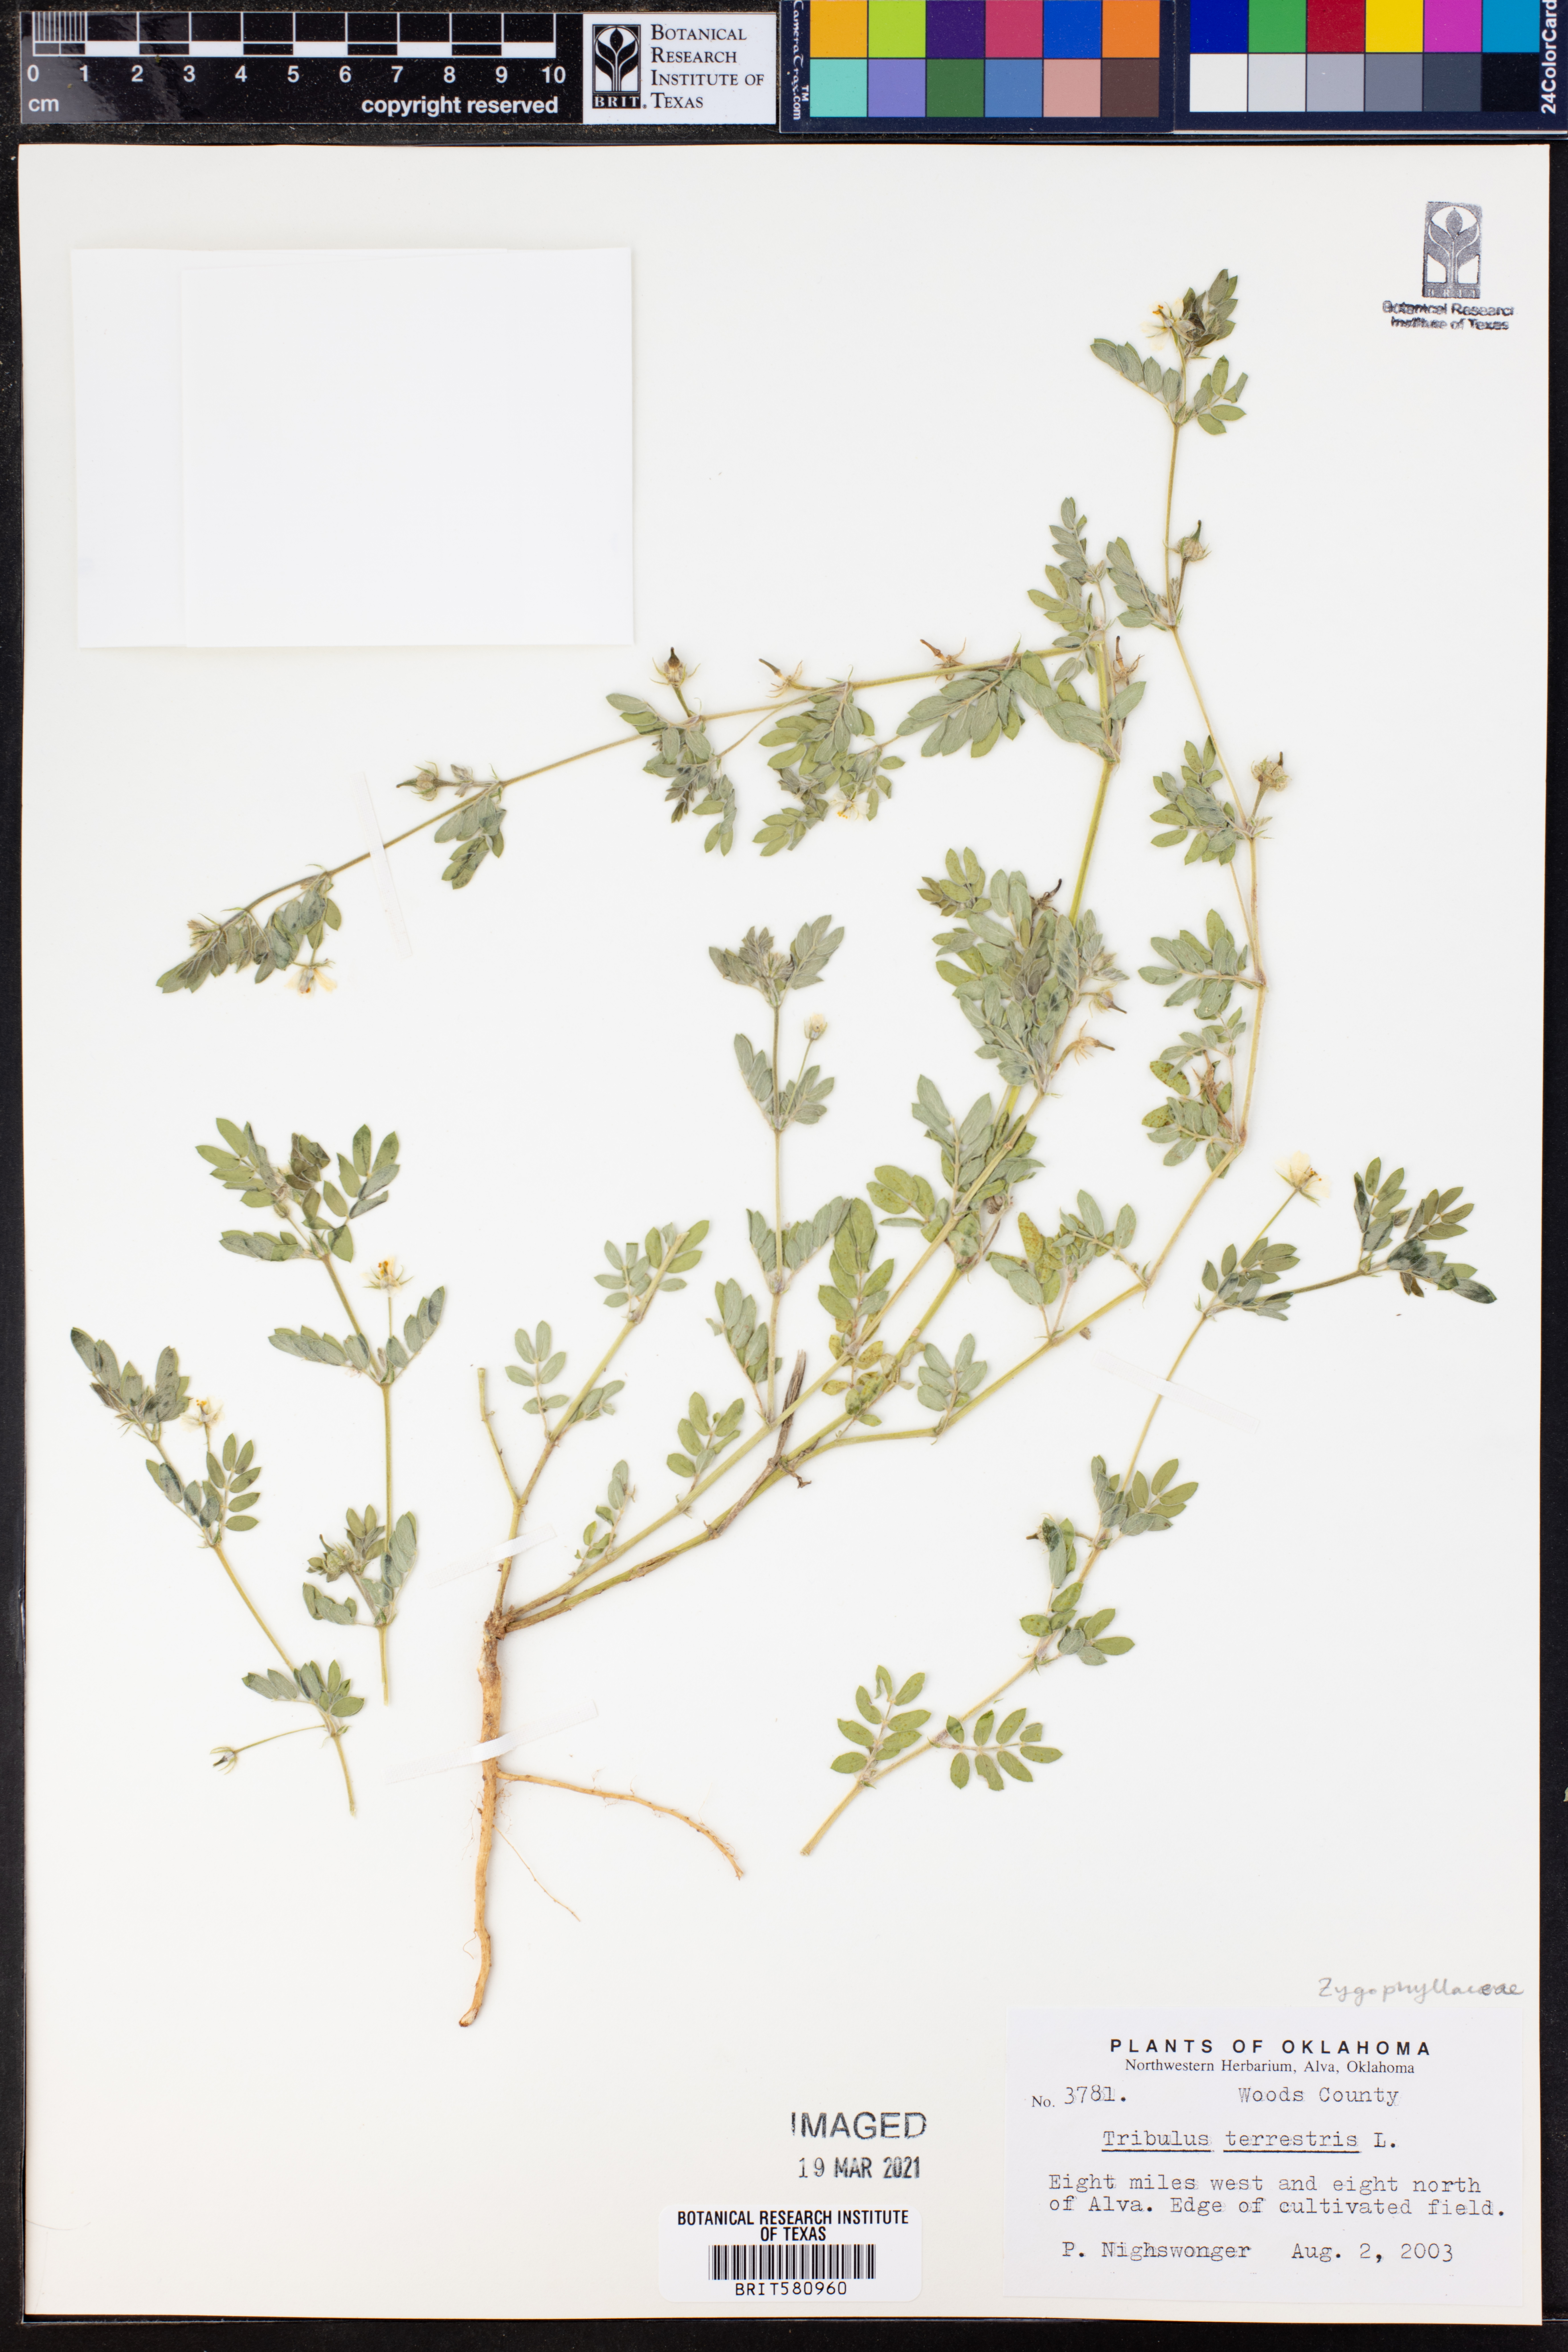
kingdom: Plantae
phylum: Tracheophyta
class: Magnoliopsida
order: Zygophyllales
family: Zygophyllaceae
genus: Tribulus
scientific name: Tribulus terrestris
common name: Puncturevine
